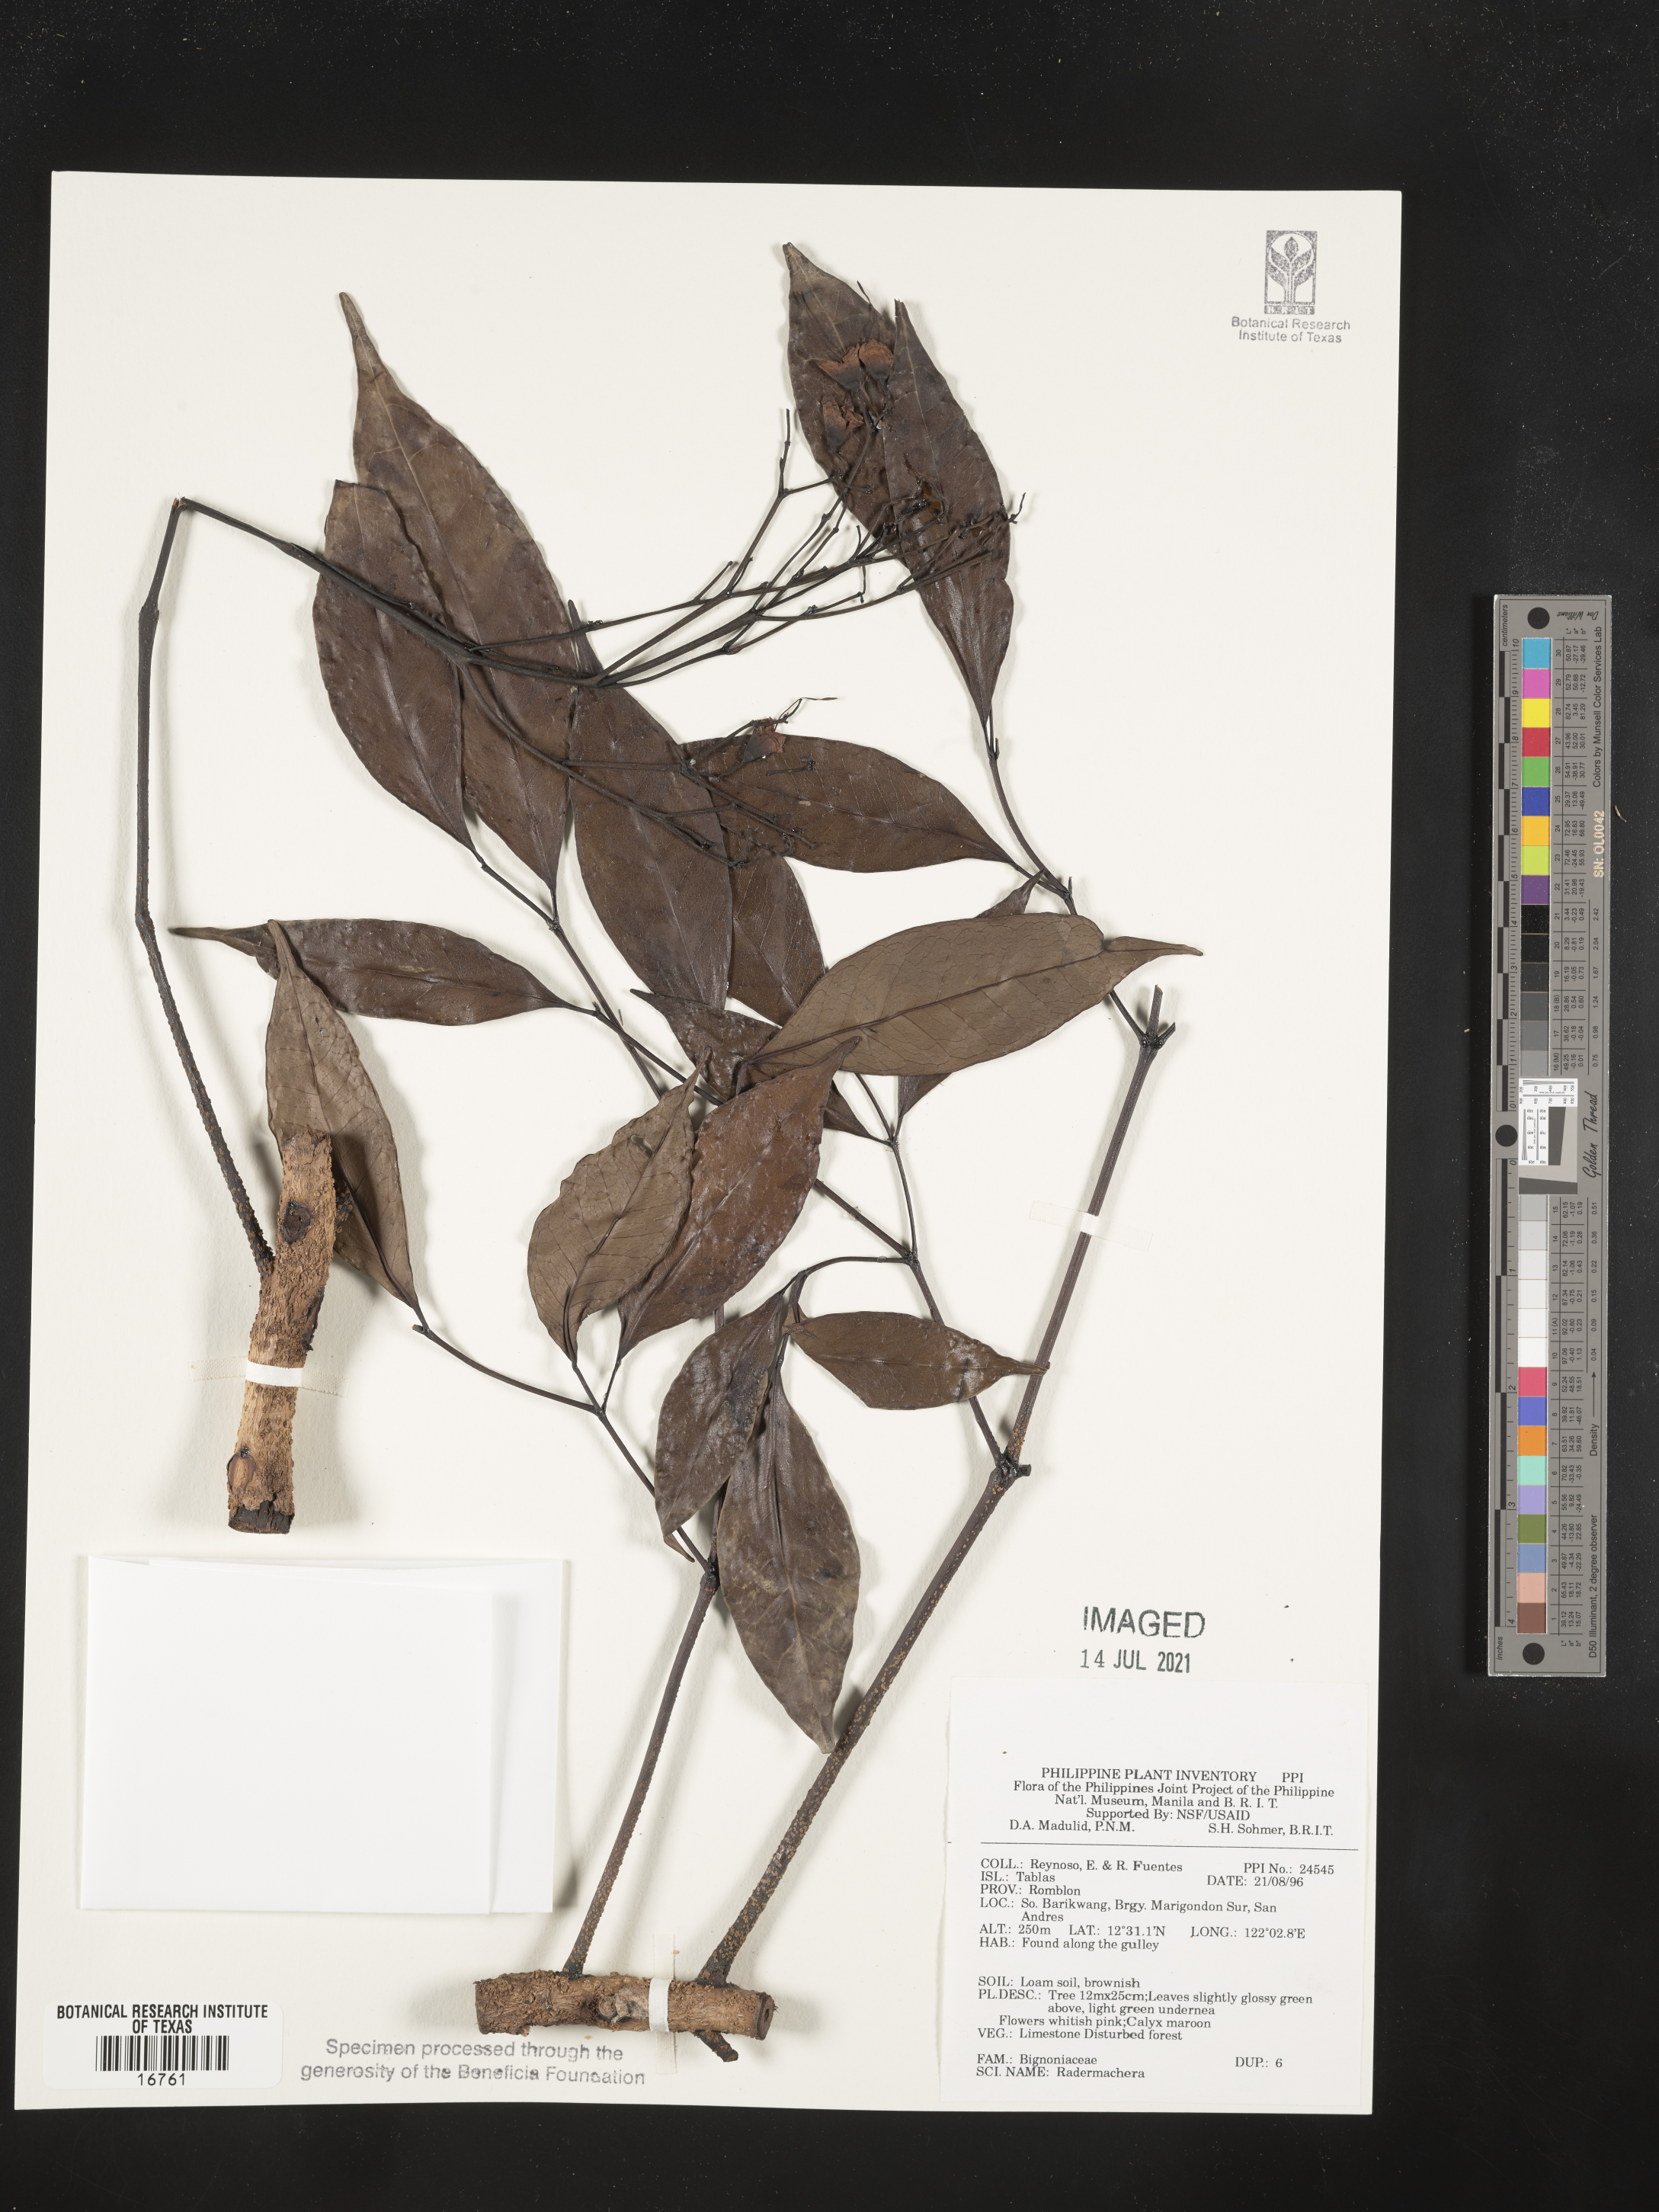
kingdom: Plantae
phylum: Tracheophyta
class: Magnoliopsida
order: Lamiales
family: Bignoniaceae
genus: Radermachera
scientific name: Radermachera
